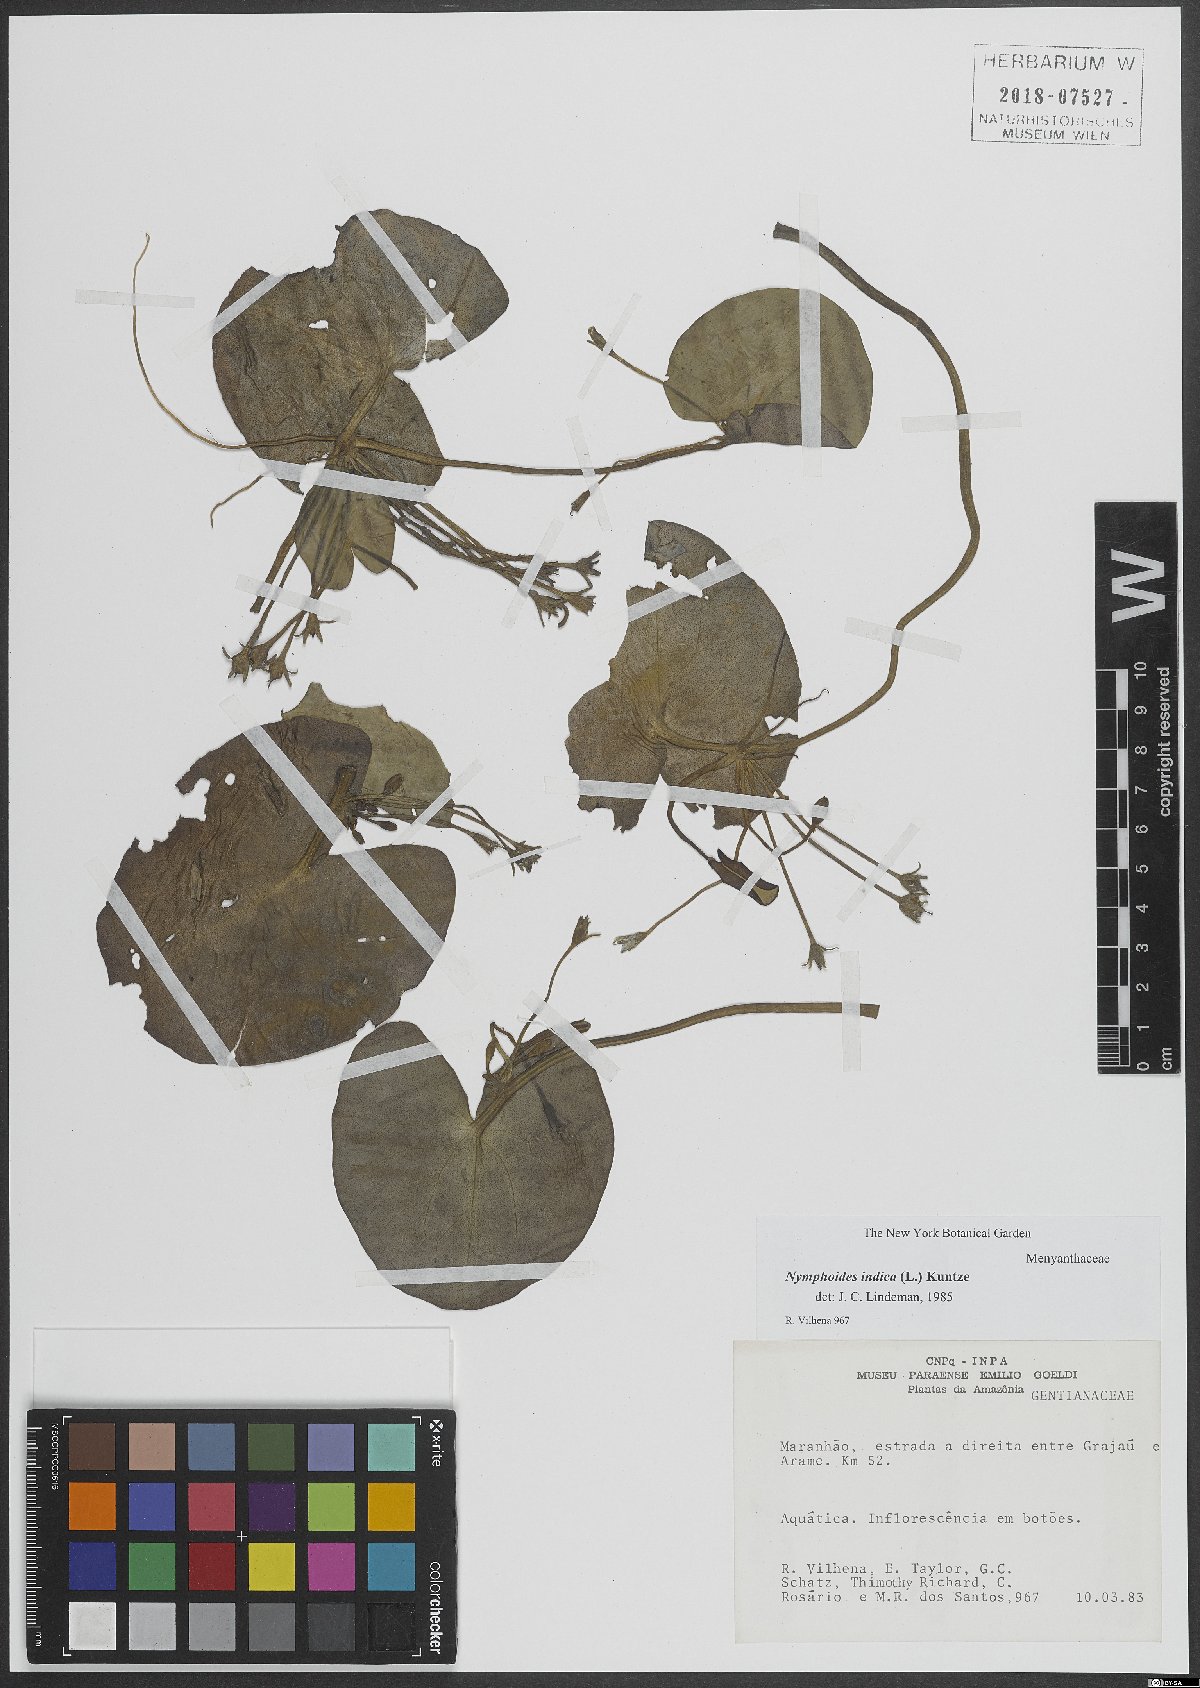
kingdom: Plantae
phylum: Tracheophyta
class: Magnoliopsida
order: Asterales
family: Menyanthaceae
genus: Nymphoides
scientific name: Nymphoides indica
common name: Water-snowflake
